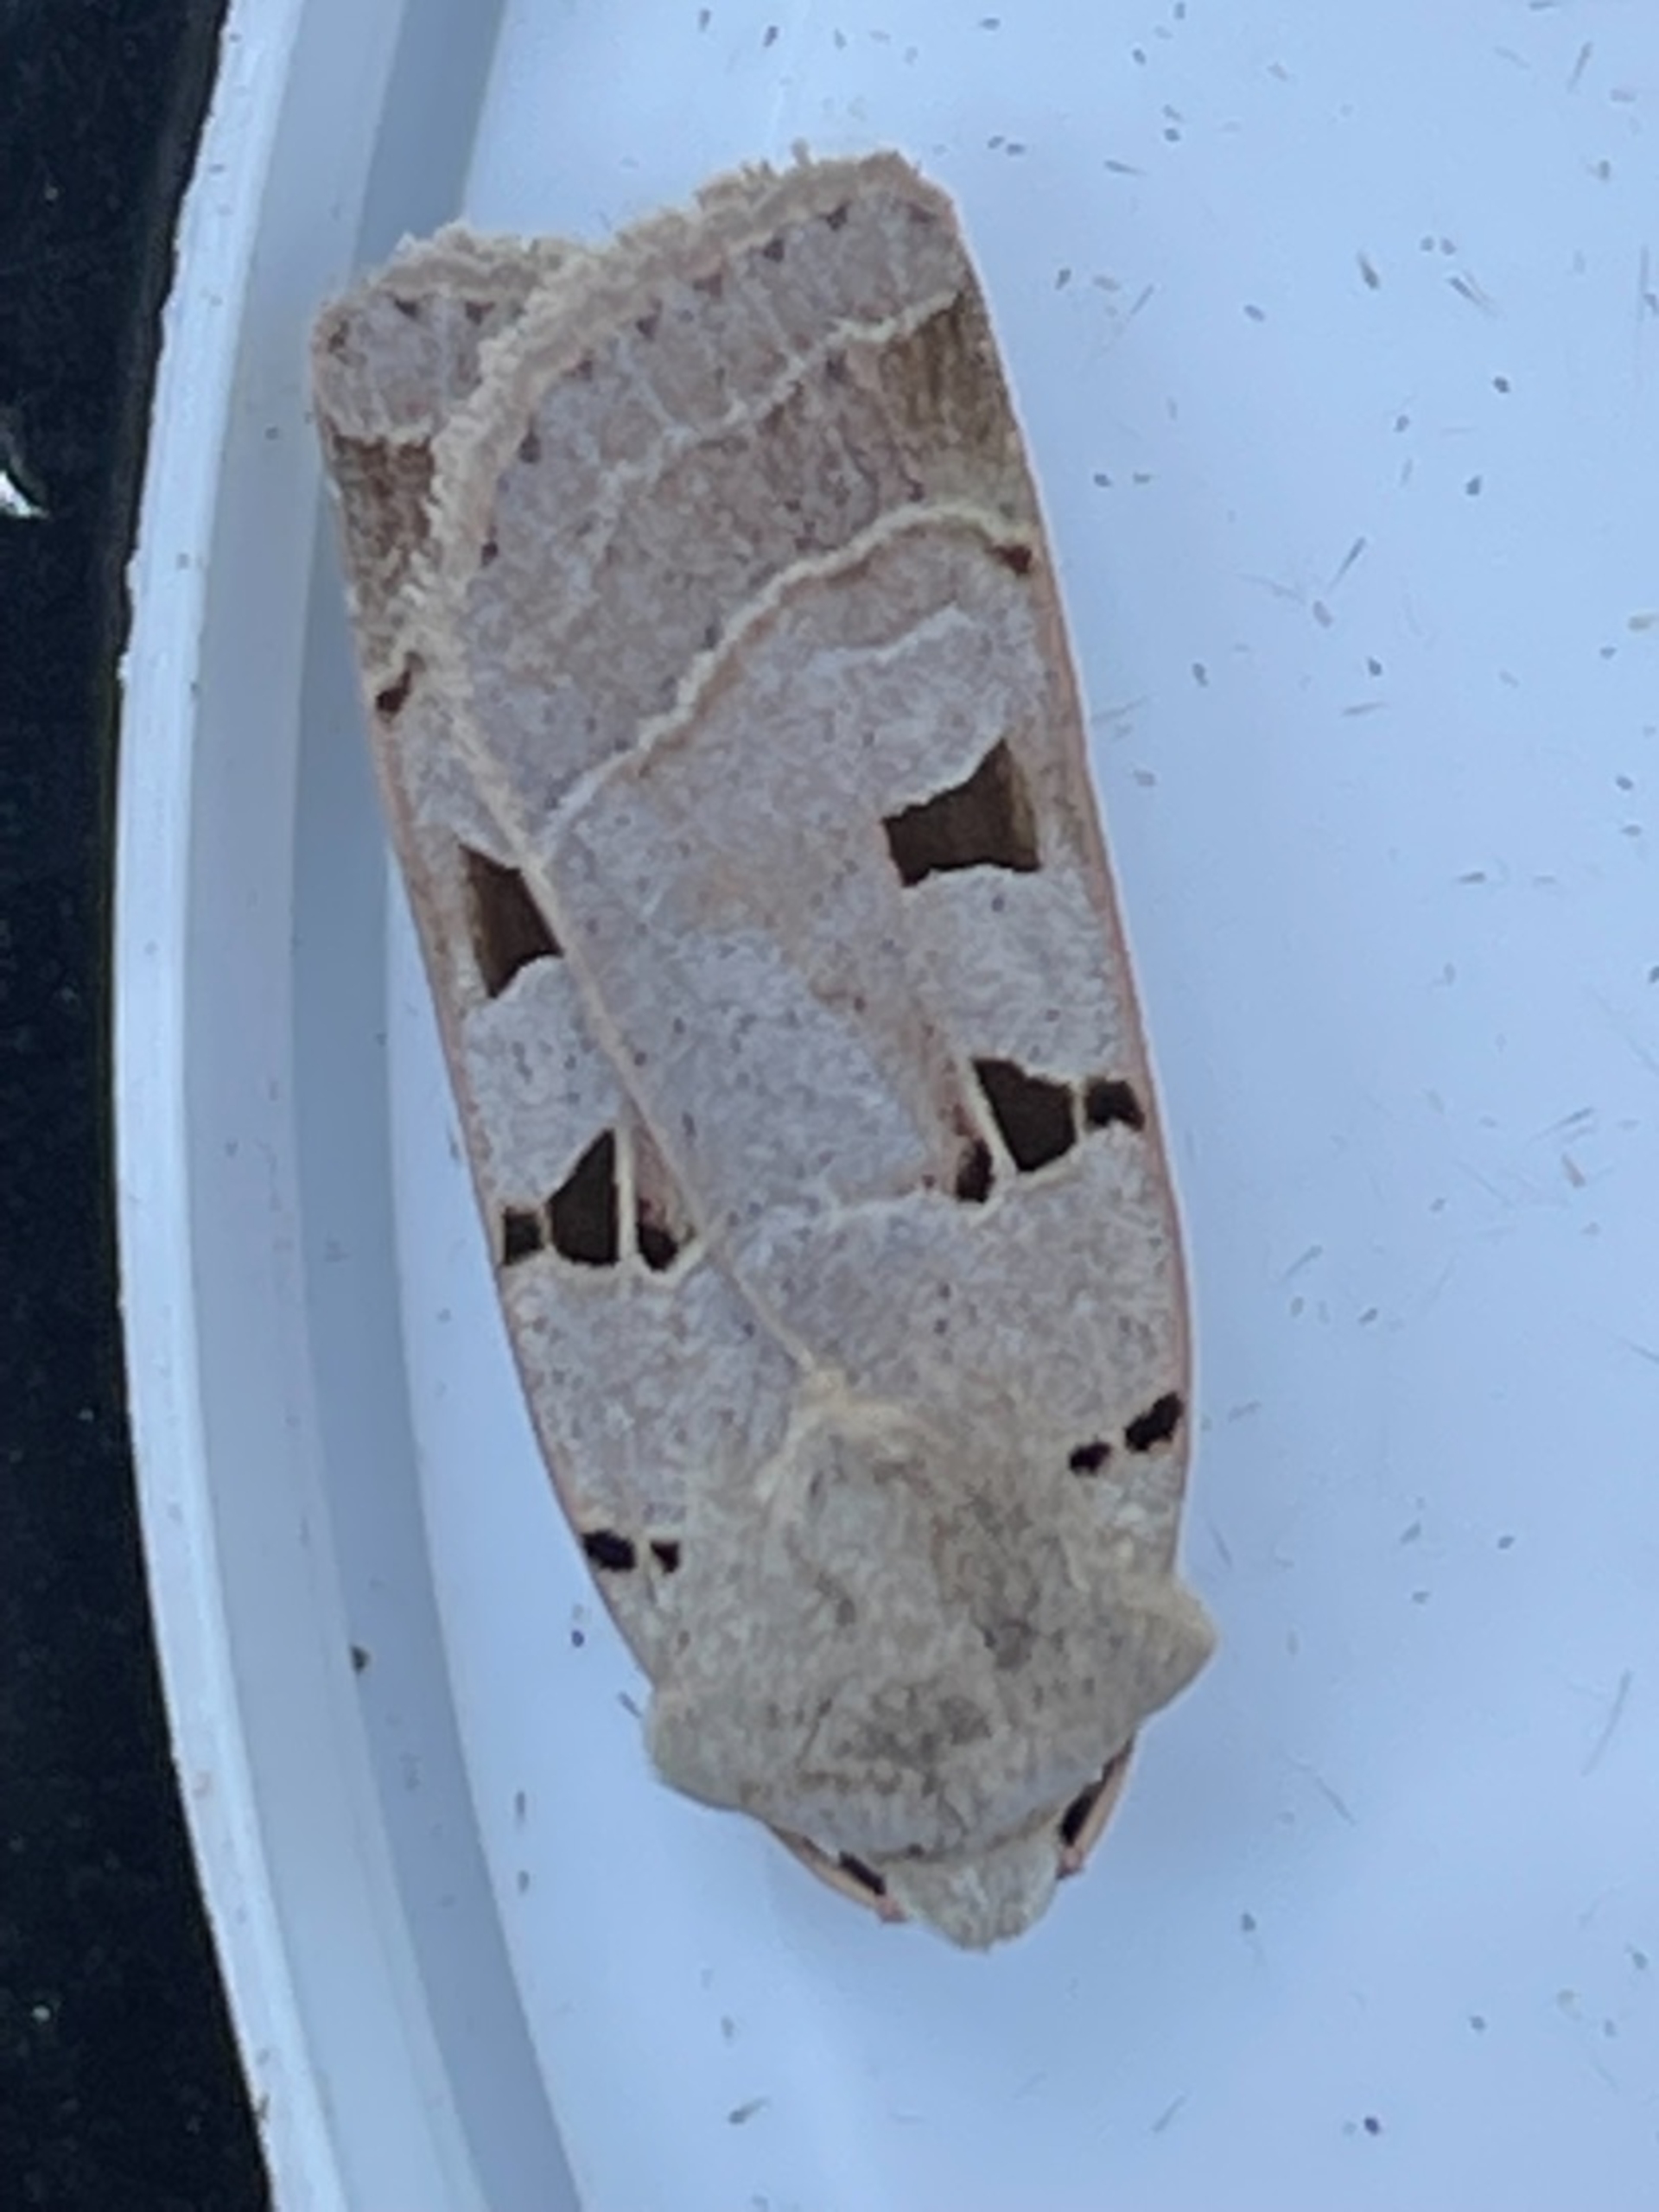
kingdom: Animalia
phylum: Arthropoda
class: Insecta
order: Lepidoptera
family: Noctuidae
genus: Eugnorisma
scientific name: Eugnorisma glareosa
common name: Strand-gråugle
